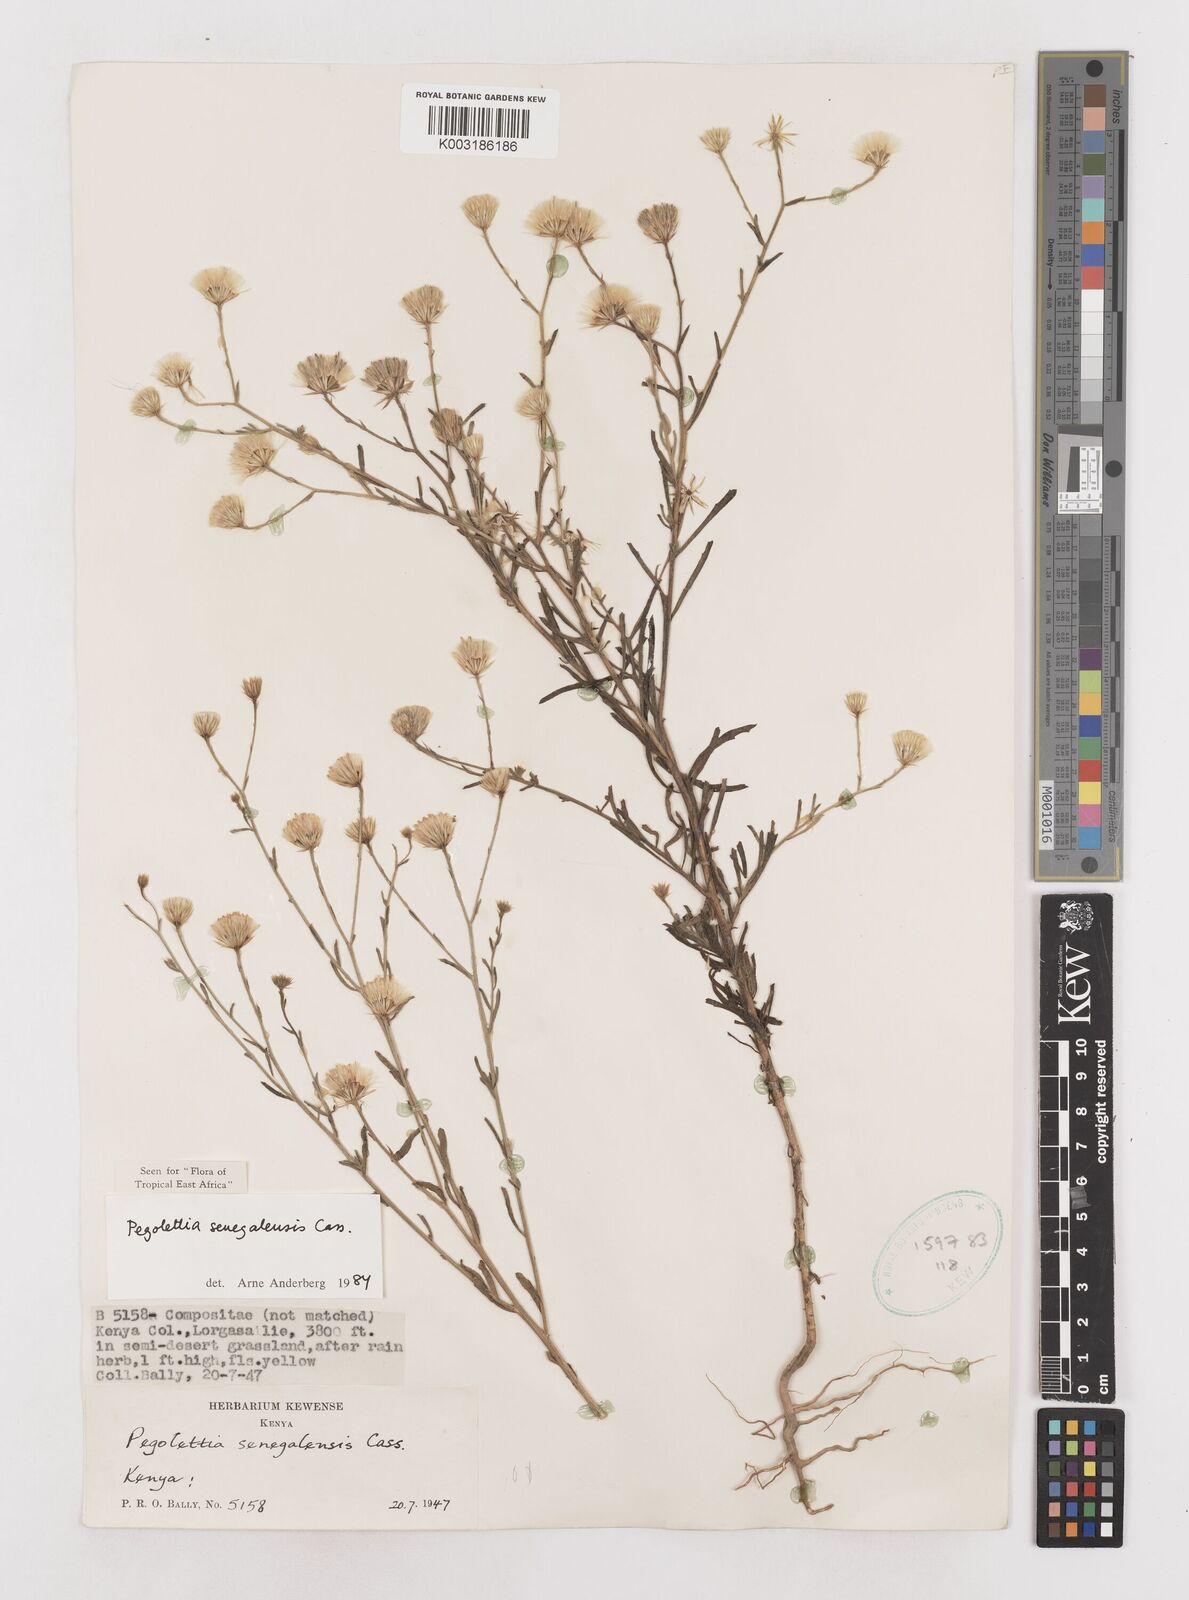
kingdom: Plantae
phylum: Tracheophyta
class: Magnoliopsida
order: Asterales
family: Asteraceae
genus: Pegolettia
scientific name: Pegolettia senegalensis
